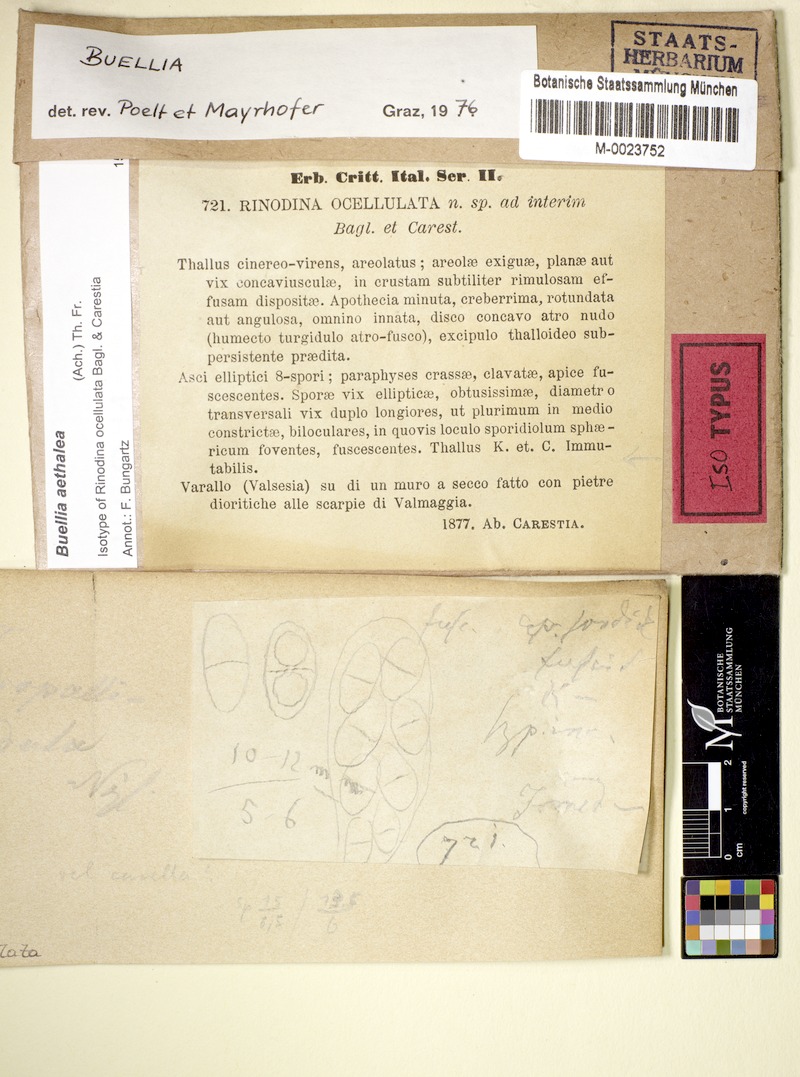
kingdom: Fungi
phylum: Ascomycota
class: Lecanoromycetes
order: Caliciales
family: Caliciaceae
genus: Buellia
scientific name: Buellia aethalea
